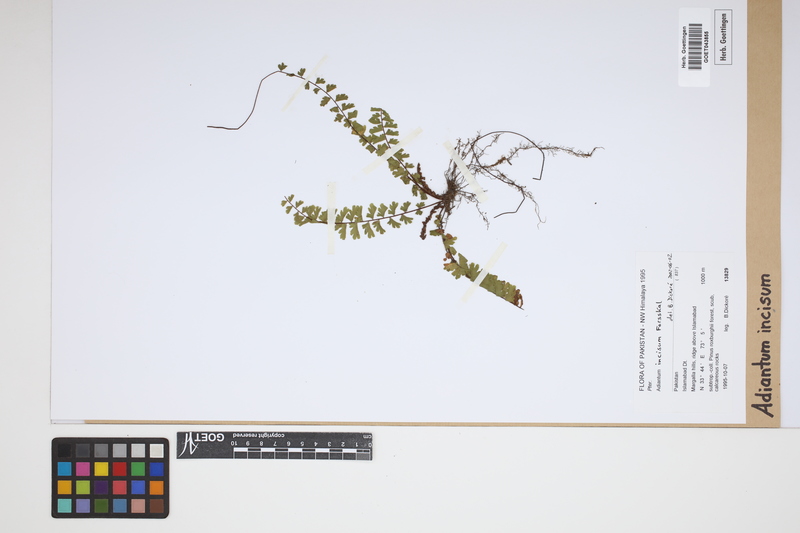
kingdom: Plantae
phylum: Tracheophyta
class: Polypodiopsida
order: Polypodiales
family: Pteridaceae
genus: Adiantum
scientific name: Adiantum incisum
